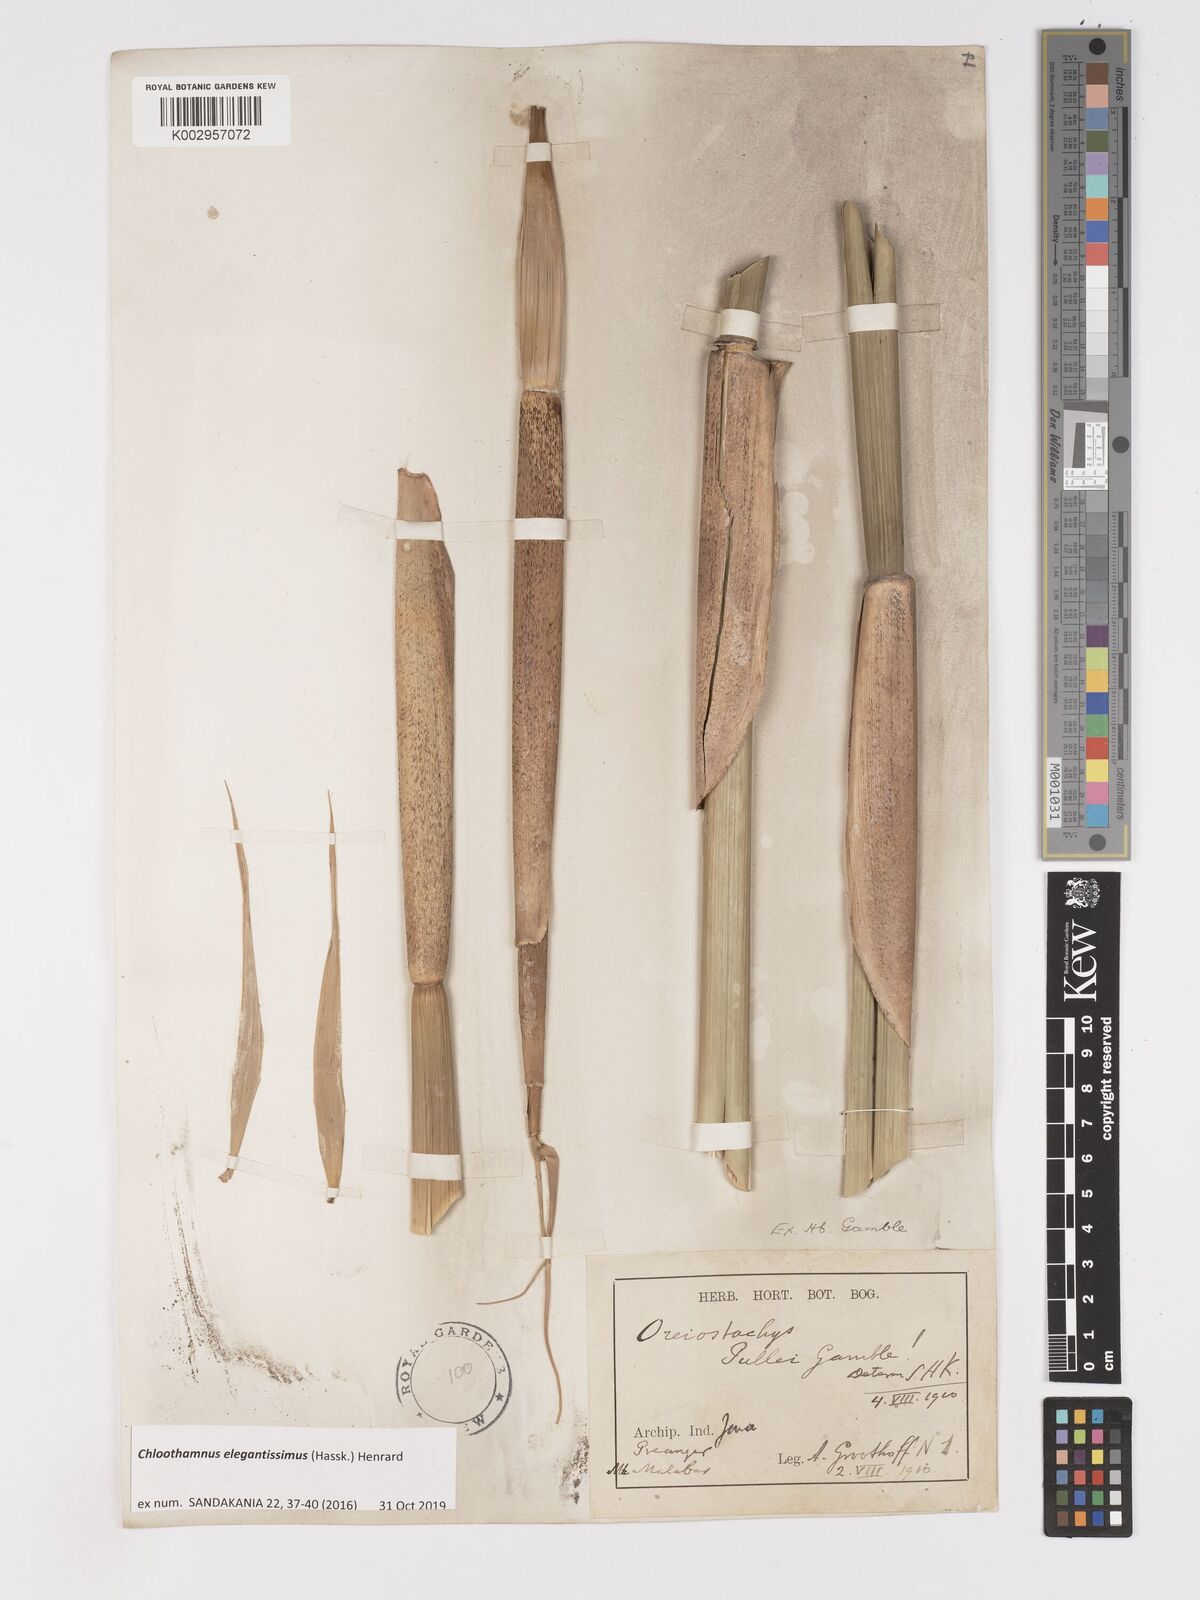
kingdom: Plantae
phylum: Tracheophyta
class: Liliopsida
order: Poales
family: Poaceae
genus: Chloothamnus
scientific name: Chloothamnus elegantissimus
